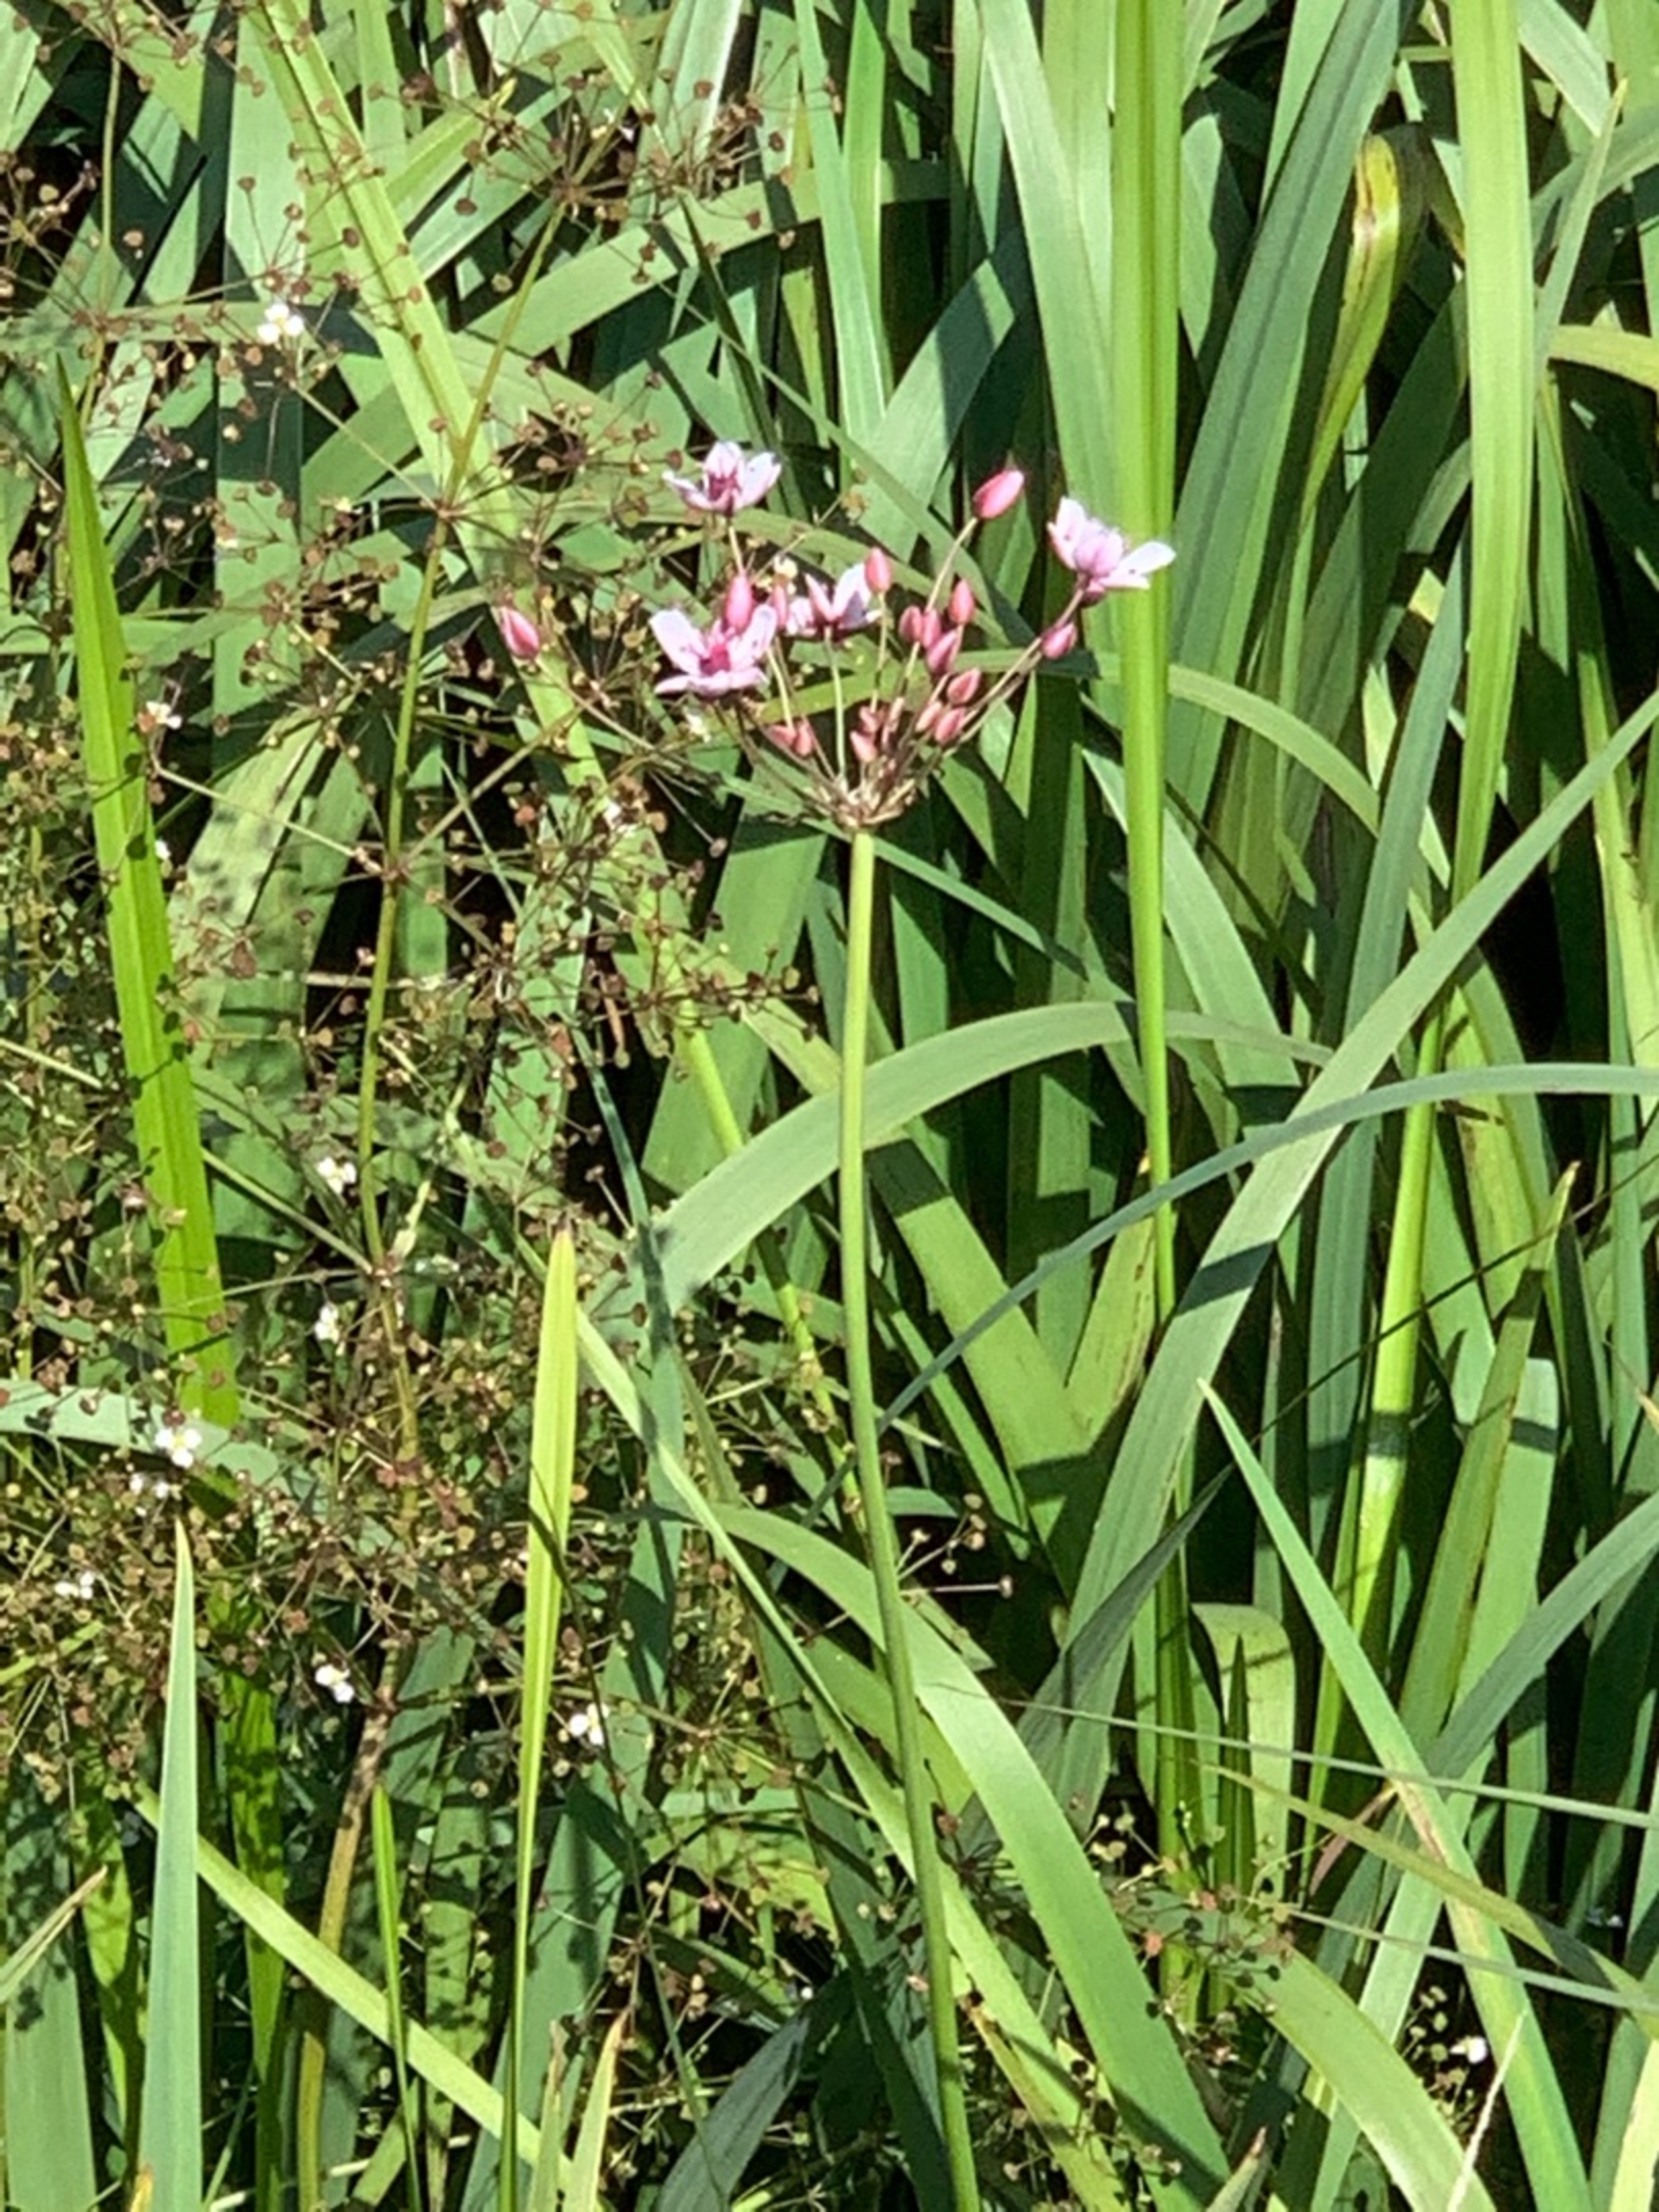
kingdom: Plantae
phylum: Tracheophyta
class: Liliopsida
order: Alismatales
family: Butomaceae
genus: Butomus
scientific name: Butomus umbellatus
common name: Brudelys
